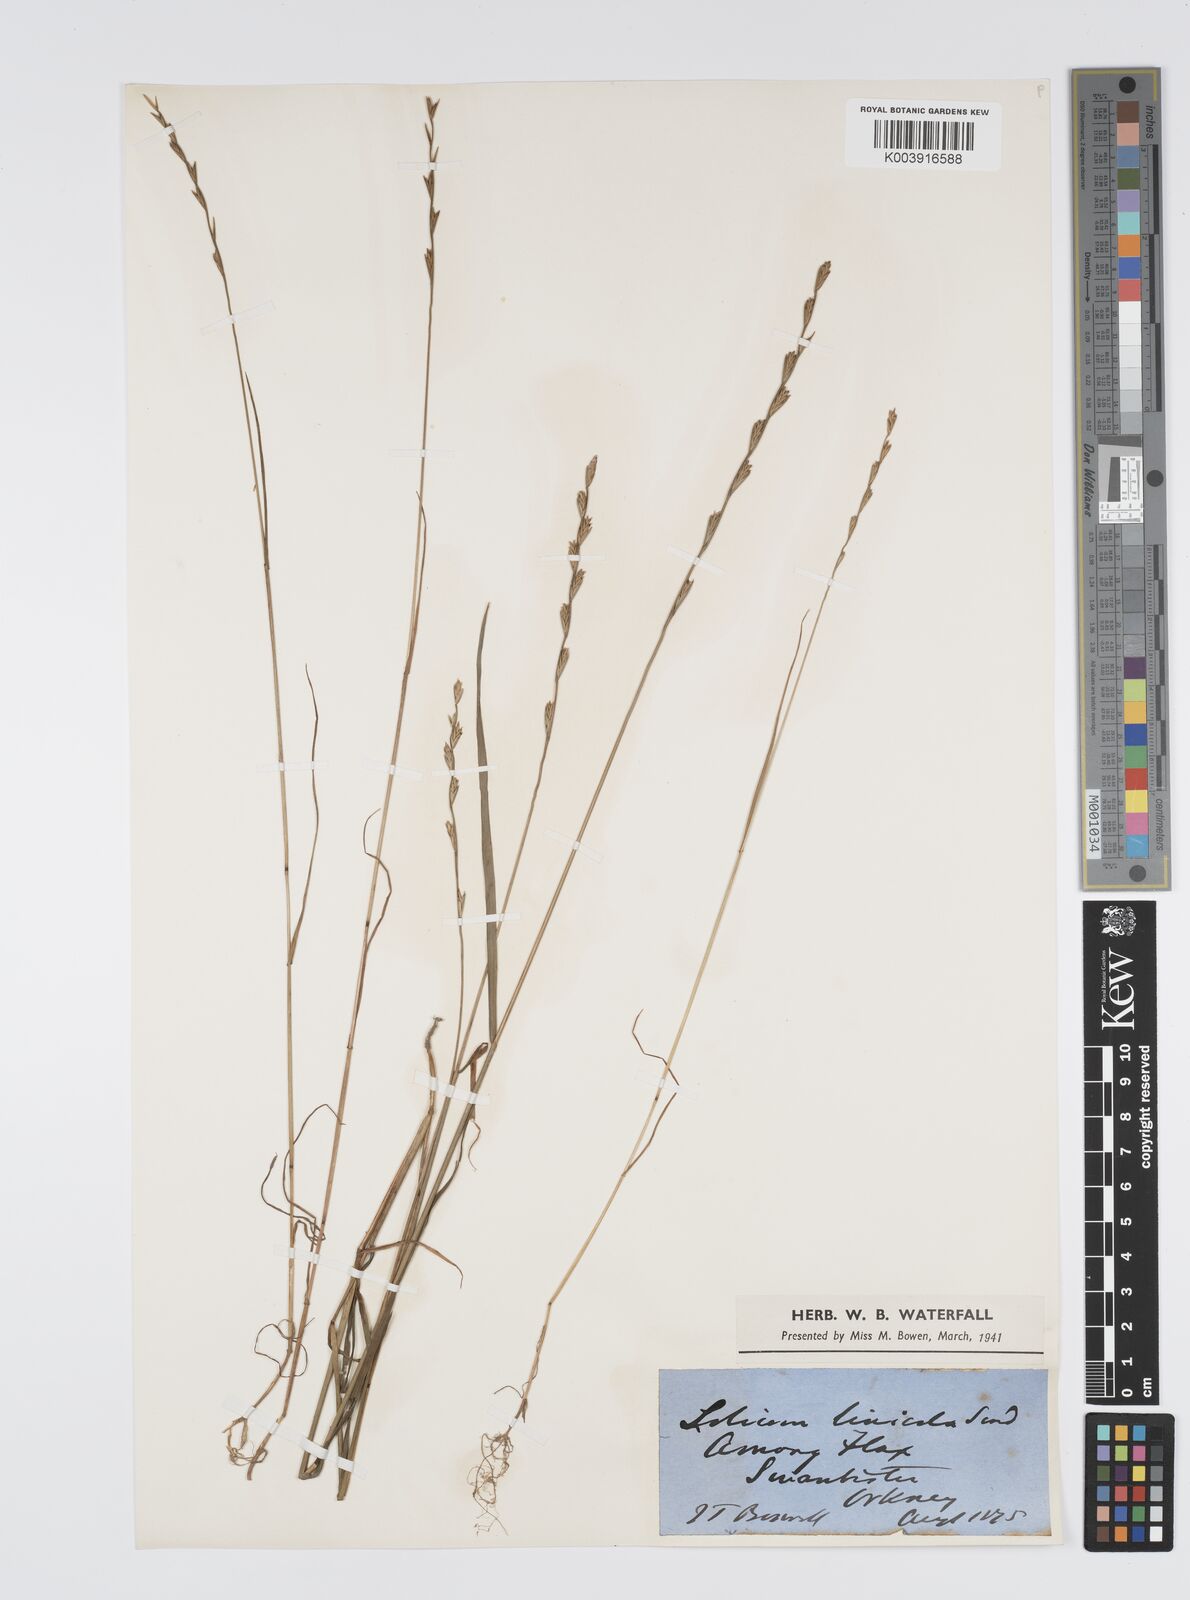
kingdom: Plantae
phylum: Tracheophyta
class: Liliopsida
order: Poales
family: Poaceae
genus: Lolium
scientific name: Lolium remotum
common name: Flaxfield rye-grass
